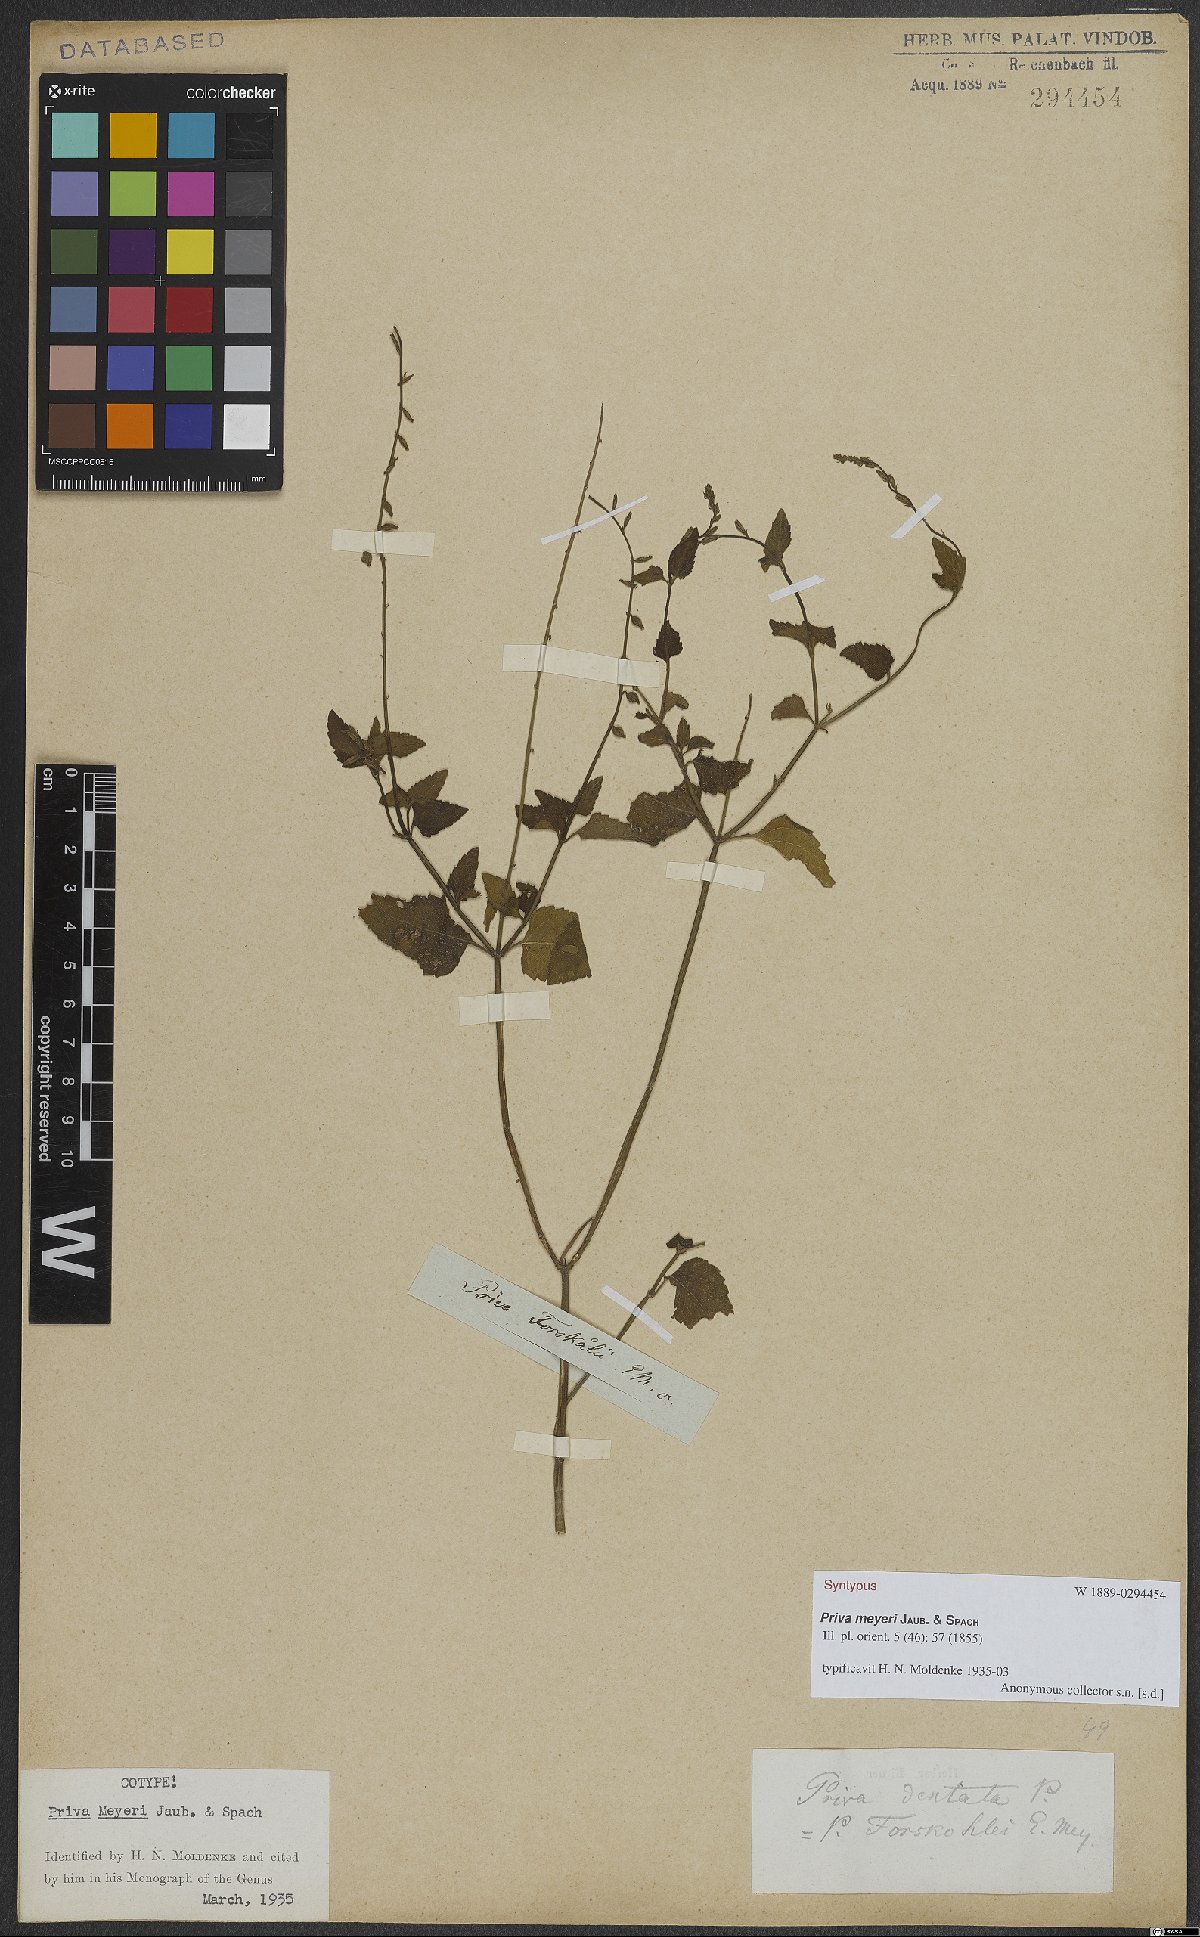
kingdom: Plantae
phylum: Tracheophyta
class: Magnoliopsida
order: Lamiales
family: Verbenaceae
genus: Priva
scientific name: Priva meyeri
